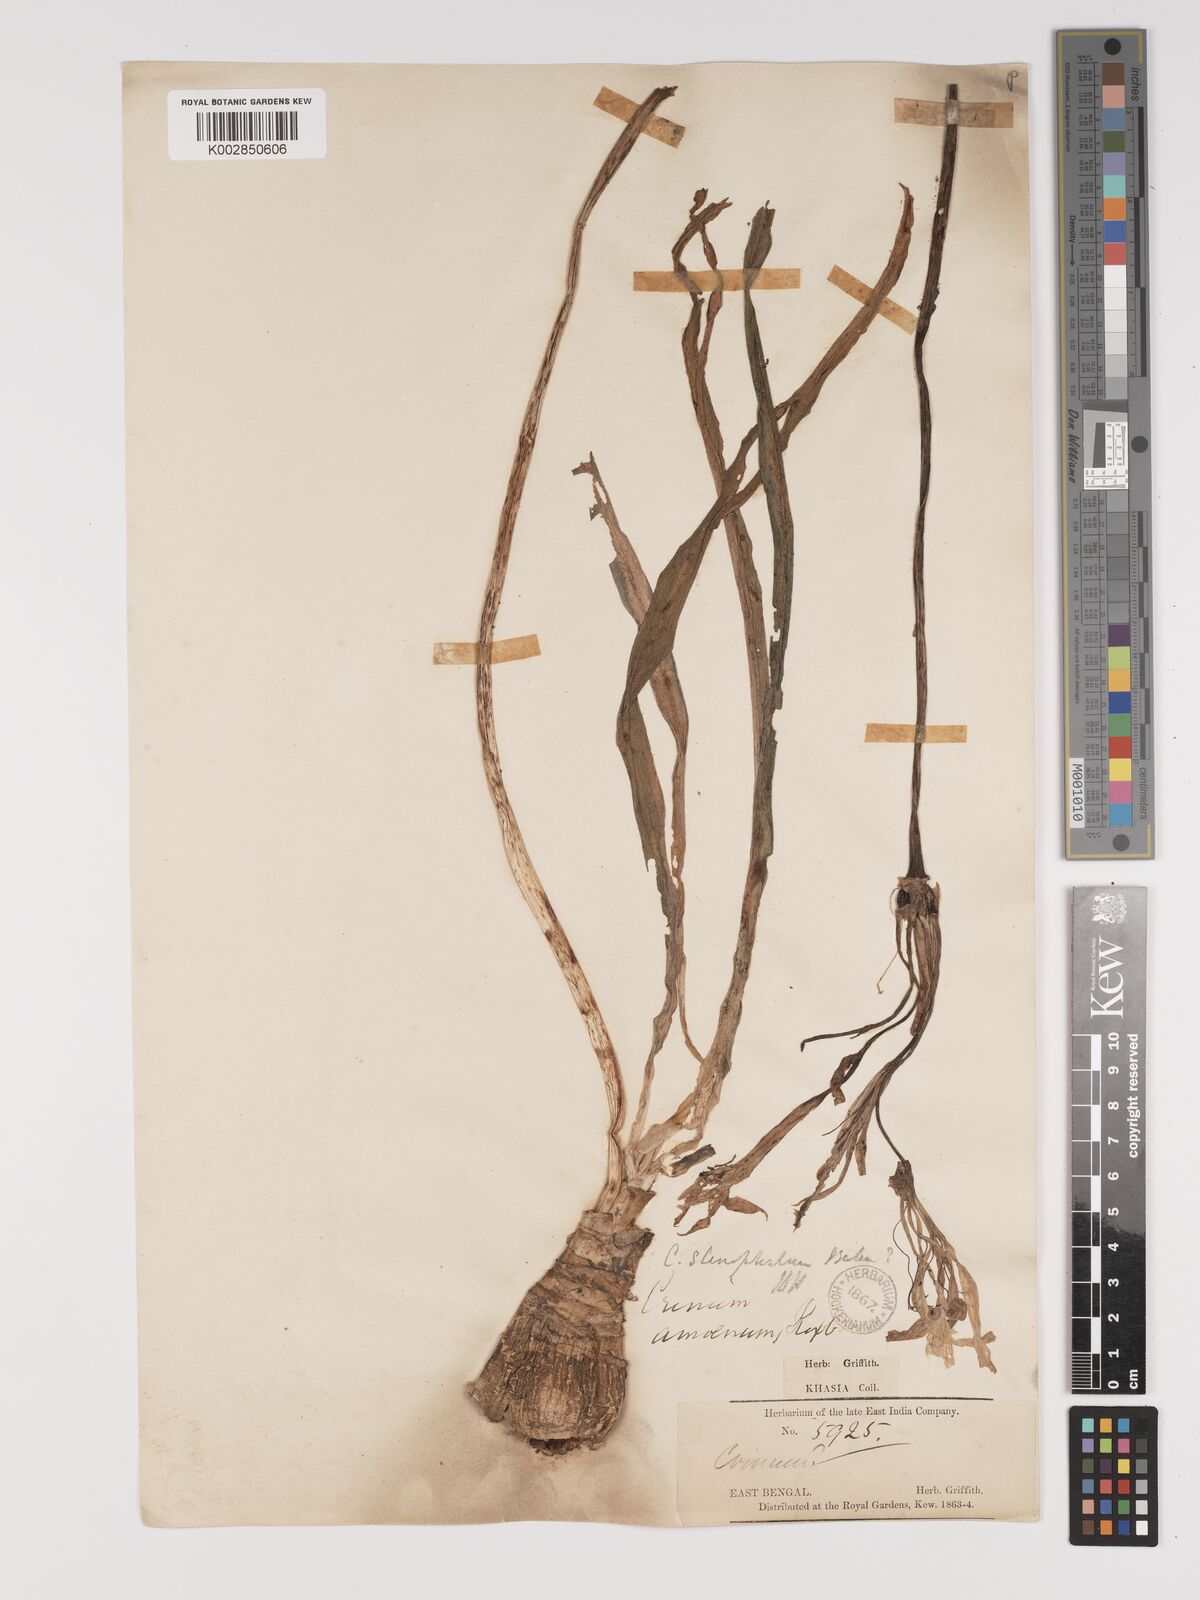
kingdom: Plantae
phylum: Tracheophyta
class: Liliopsida
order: Asparagales
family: Amaryllidaceae
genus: Crinum
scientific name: Crinum defixum
